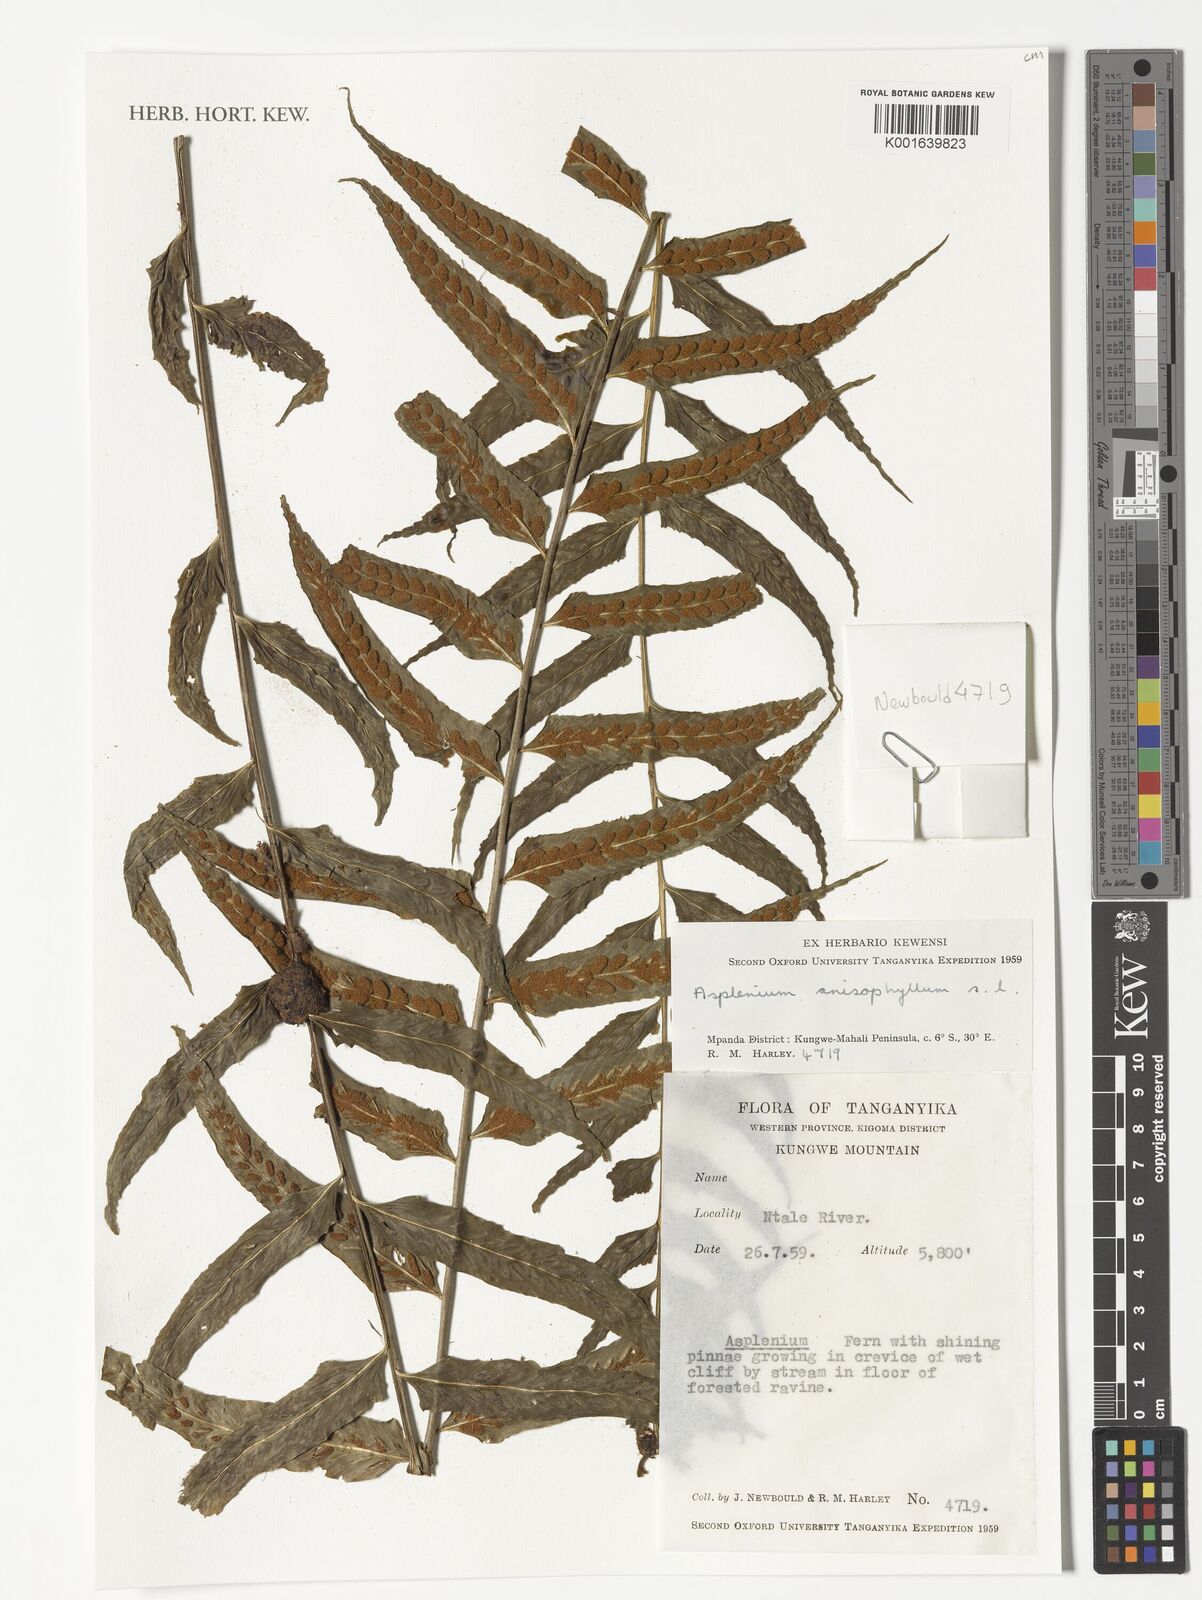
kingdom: Plantae
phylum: Tracheophyta
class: Polypodiopsida
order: Polypodiales
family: Aspleniaceae
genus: Asplenium
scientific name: Asplenium anisophyllum
